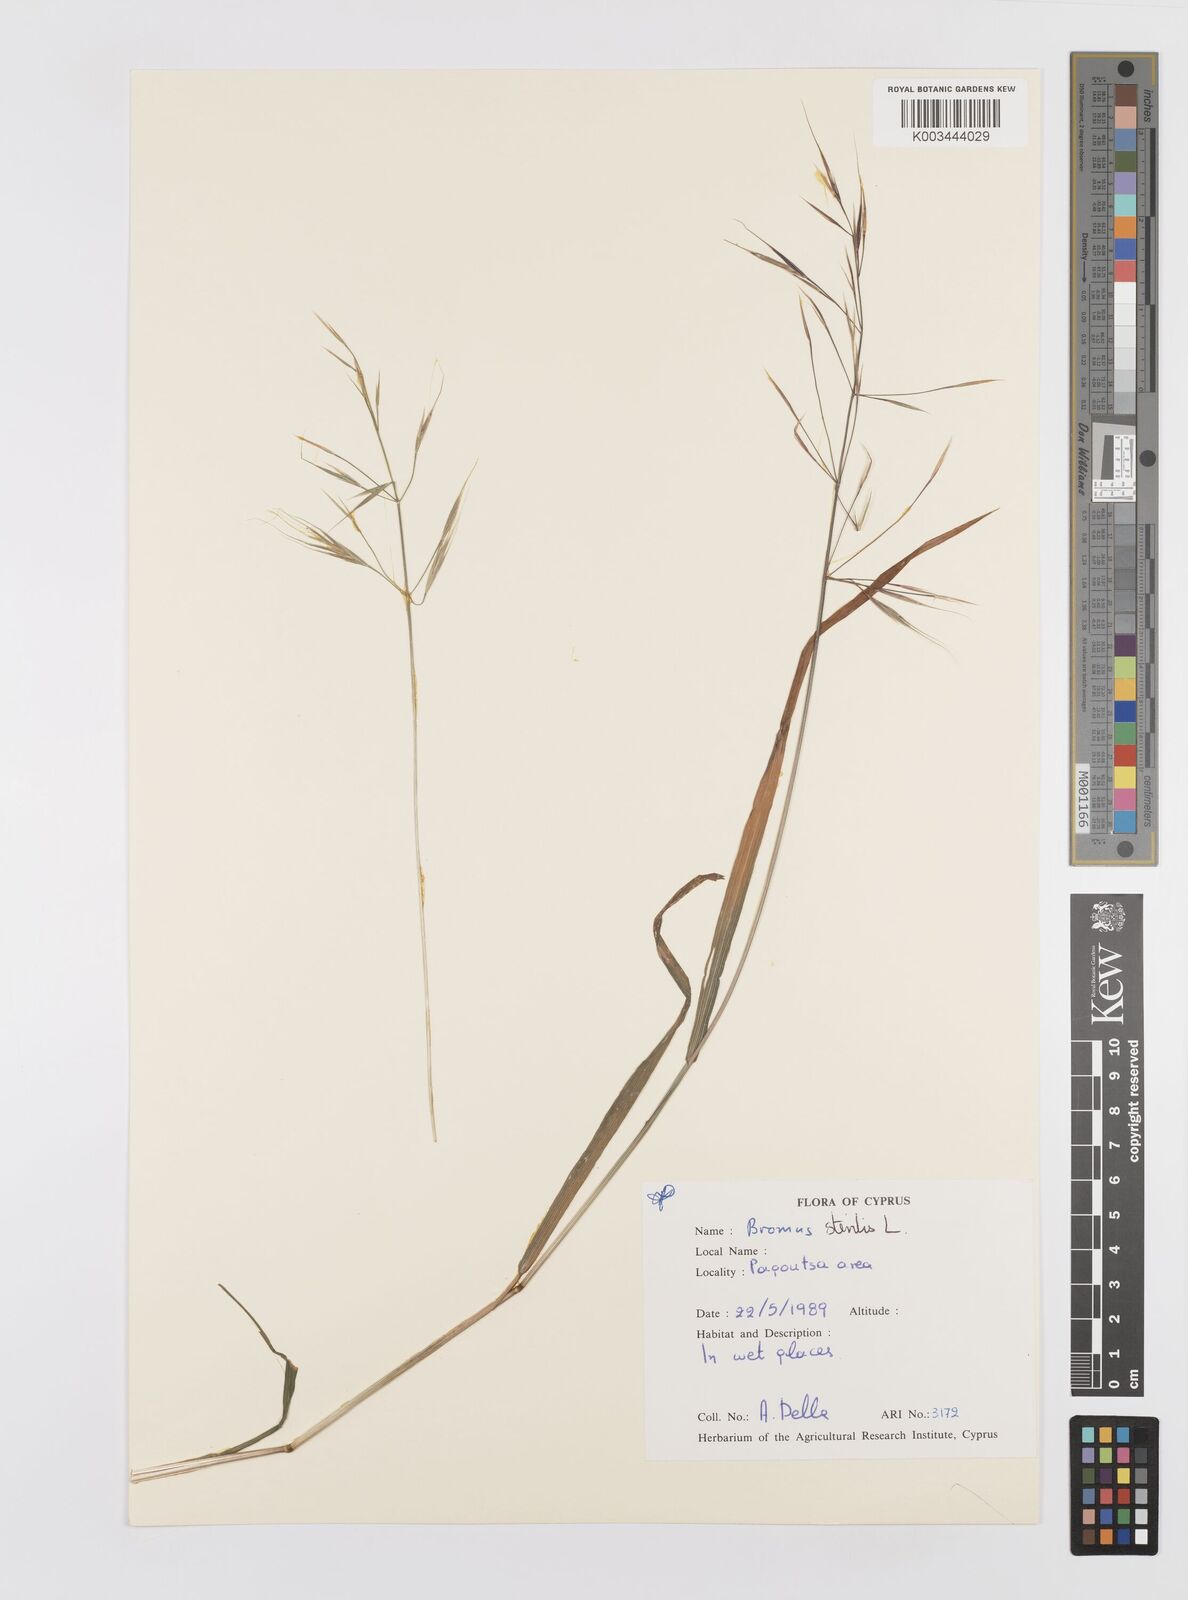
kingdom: Plantae
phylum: Tracheophyta
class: Liliopsida
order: Poales
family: Poaceae
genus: Bromus
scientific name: Bromus sterilis
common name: Poverty brome
